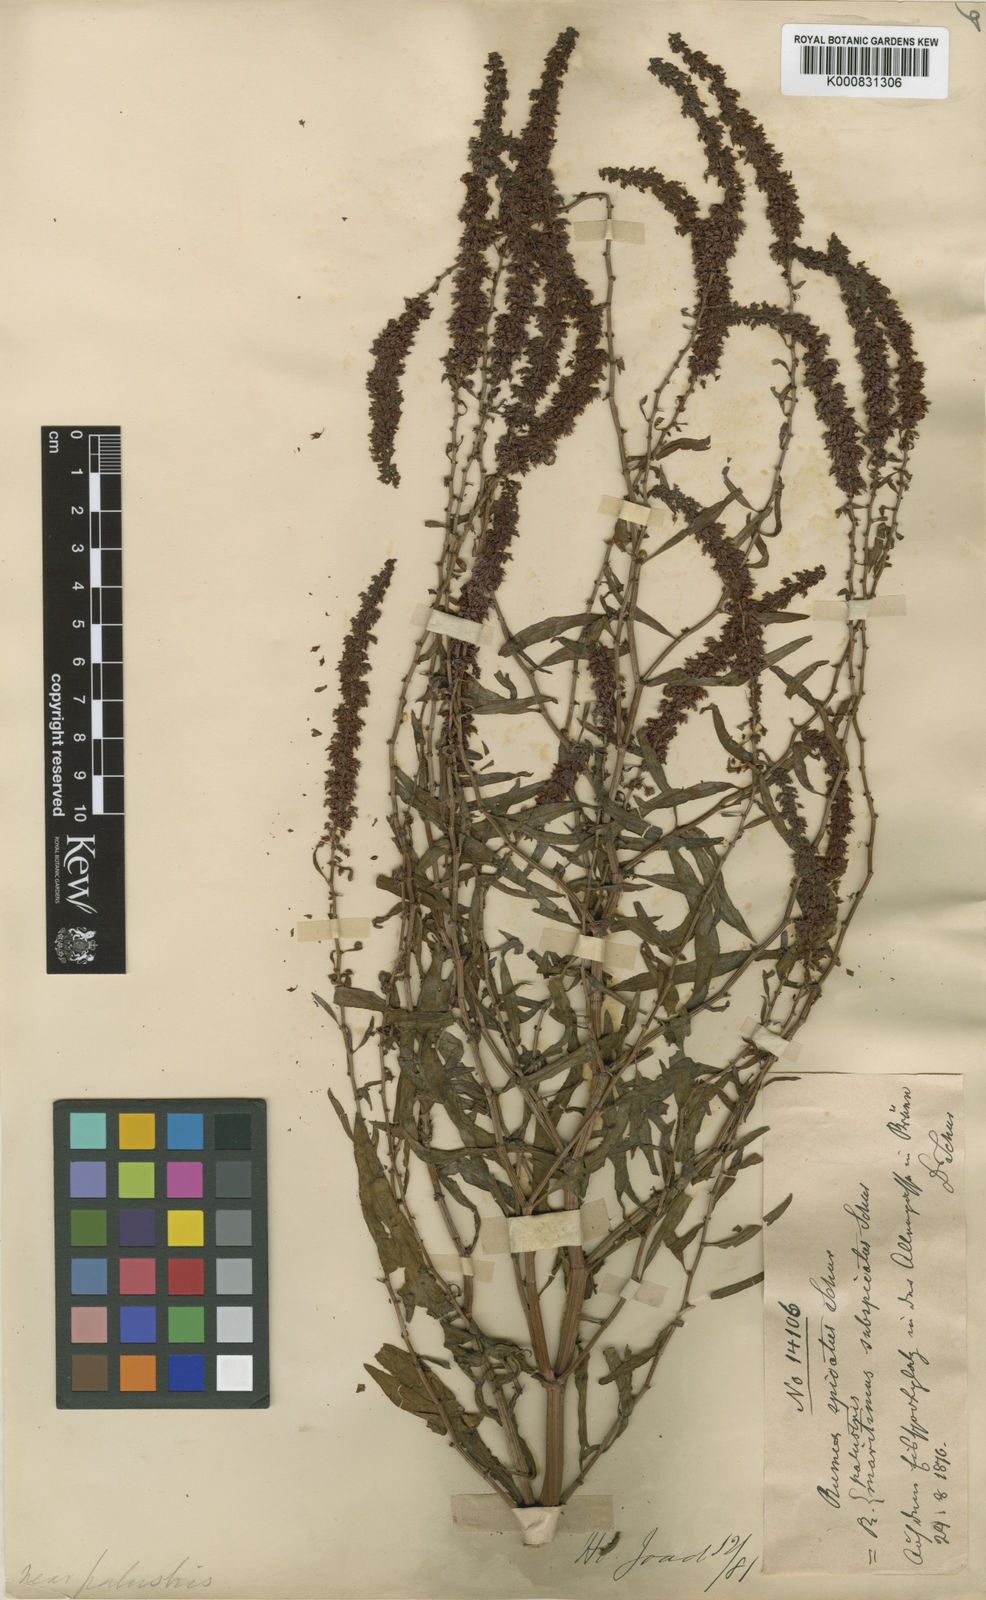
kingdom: Plantae
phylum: Tracheophyta
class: Magnoliopsida
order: Caryophyllales
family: Polygonaceae
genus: Rumex
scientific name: Rumex palustris
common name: Marsh dock
